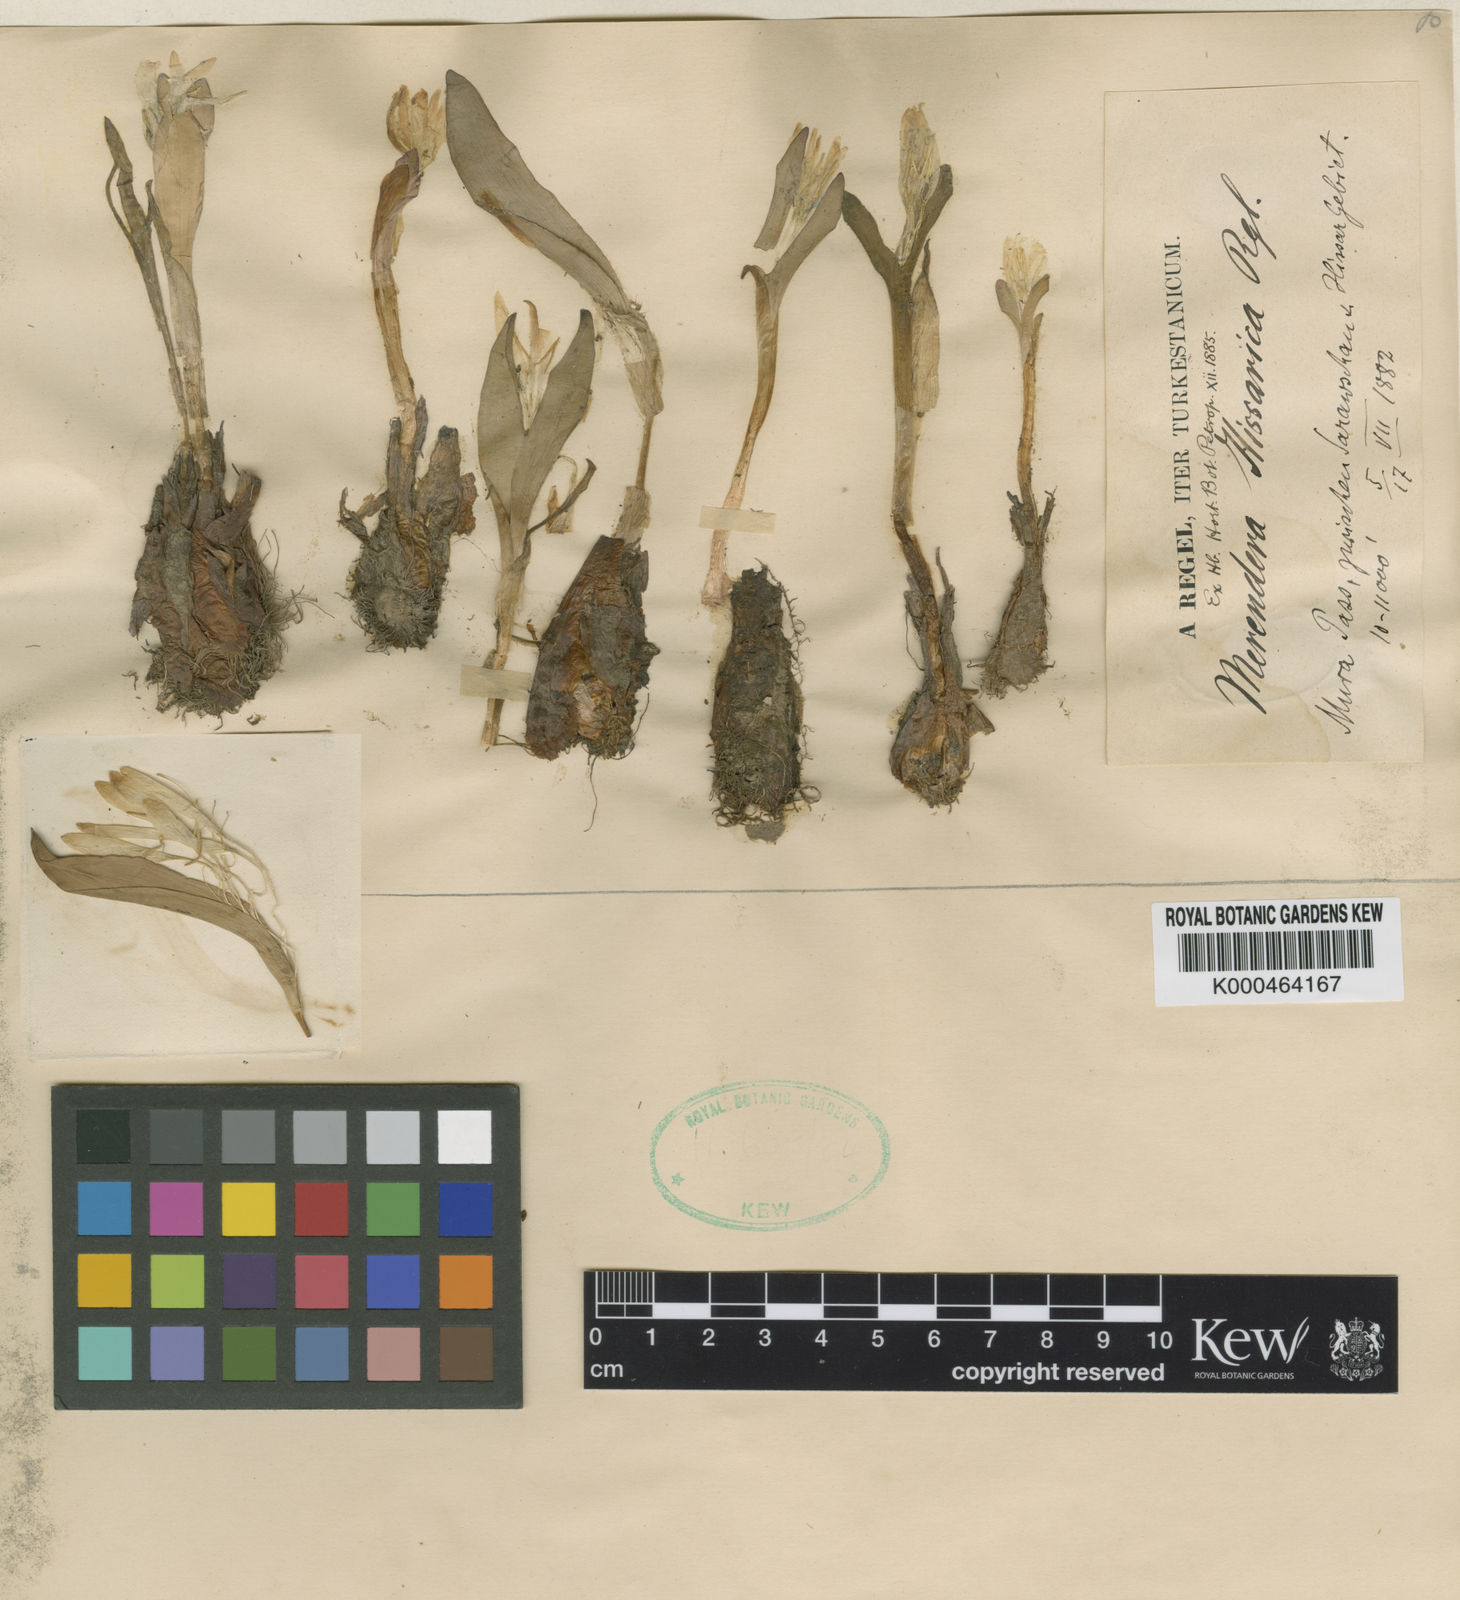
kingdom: Plantae
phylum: Tracheophyta
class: Liliopsida
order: Liliales
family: Colchicaceae
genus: Colchicum
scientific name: Colchicum robustum
